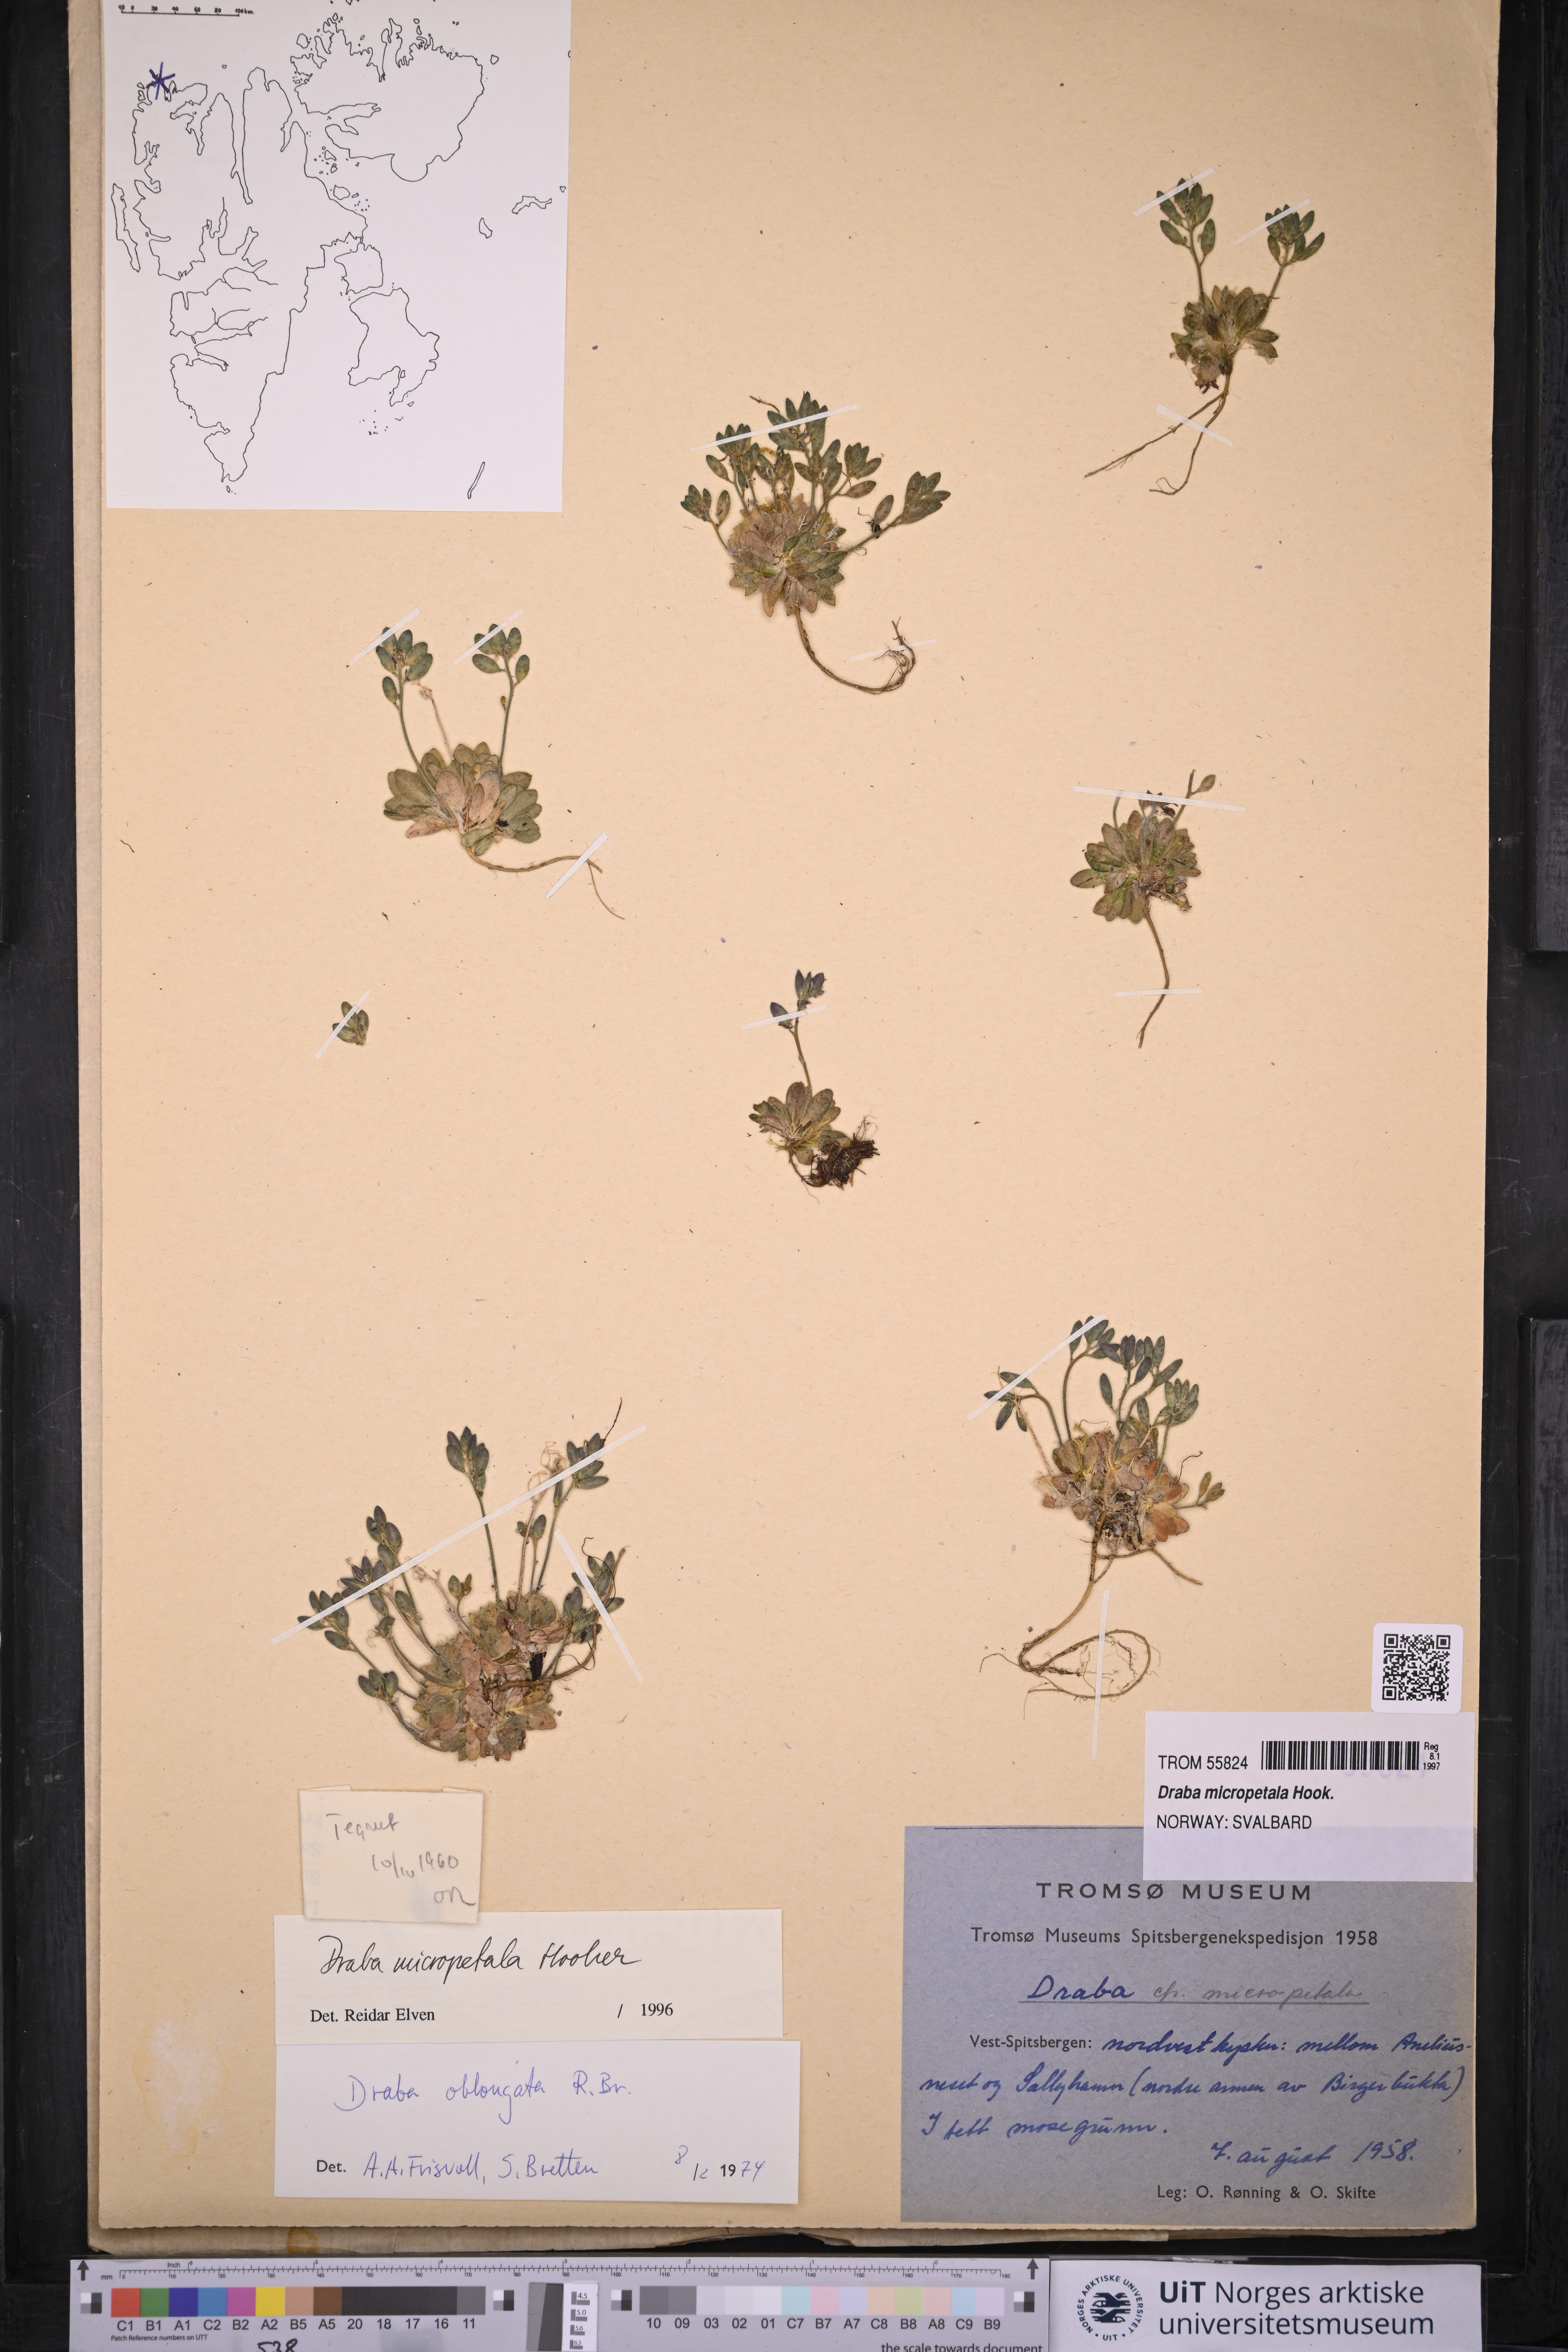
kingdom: Plantae
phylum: Tracheophyta
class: Magnoliopsida
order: Brassicales
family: Brassicaceae
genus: Draba
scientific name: Draba micropetala
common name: Small-flowered draba
